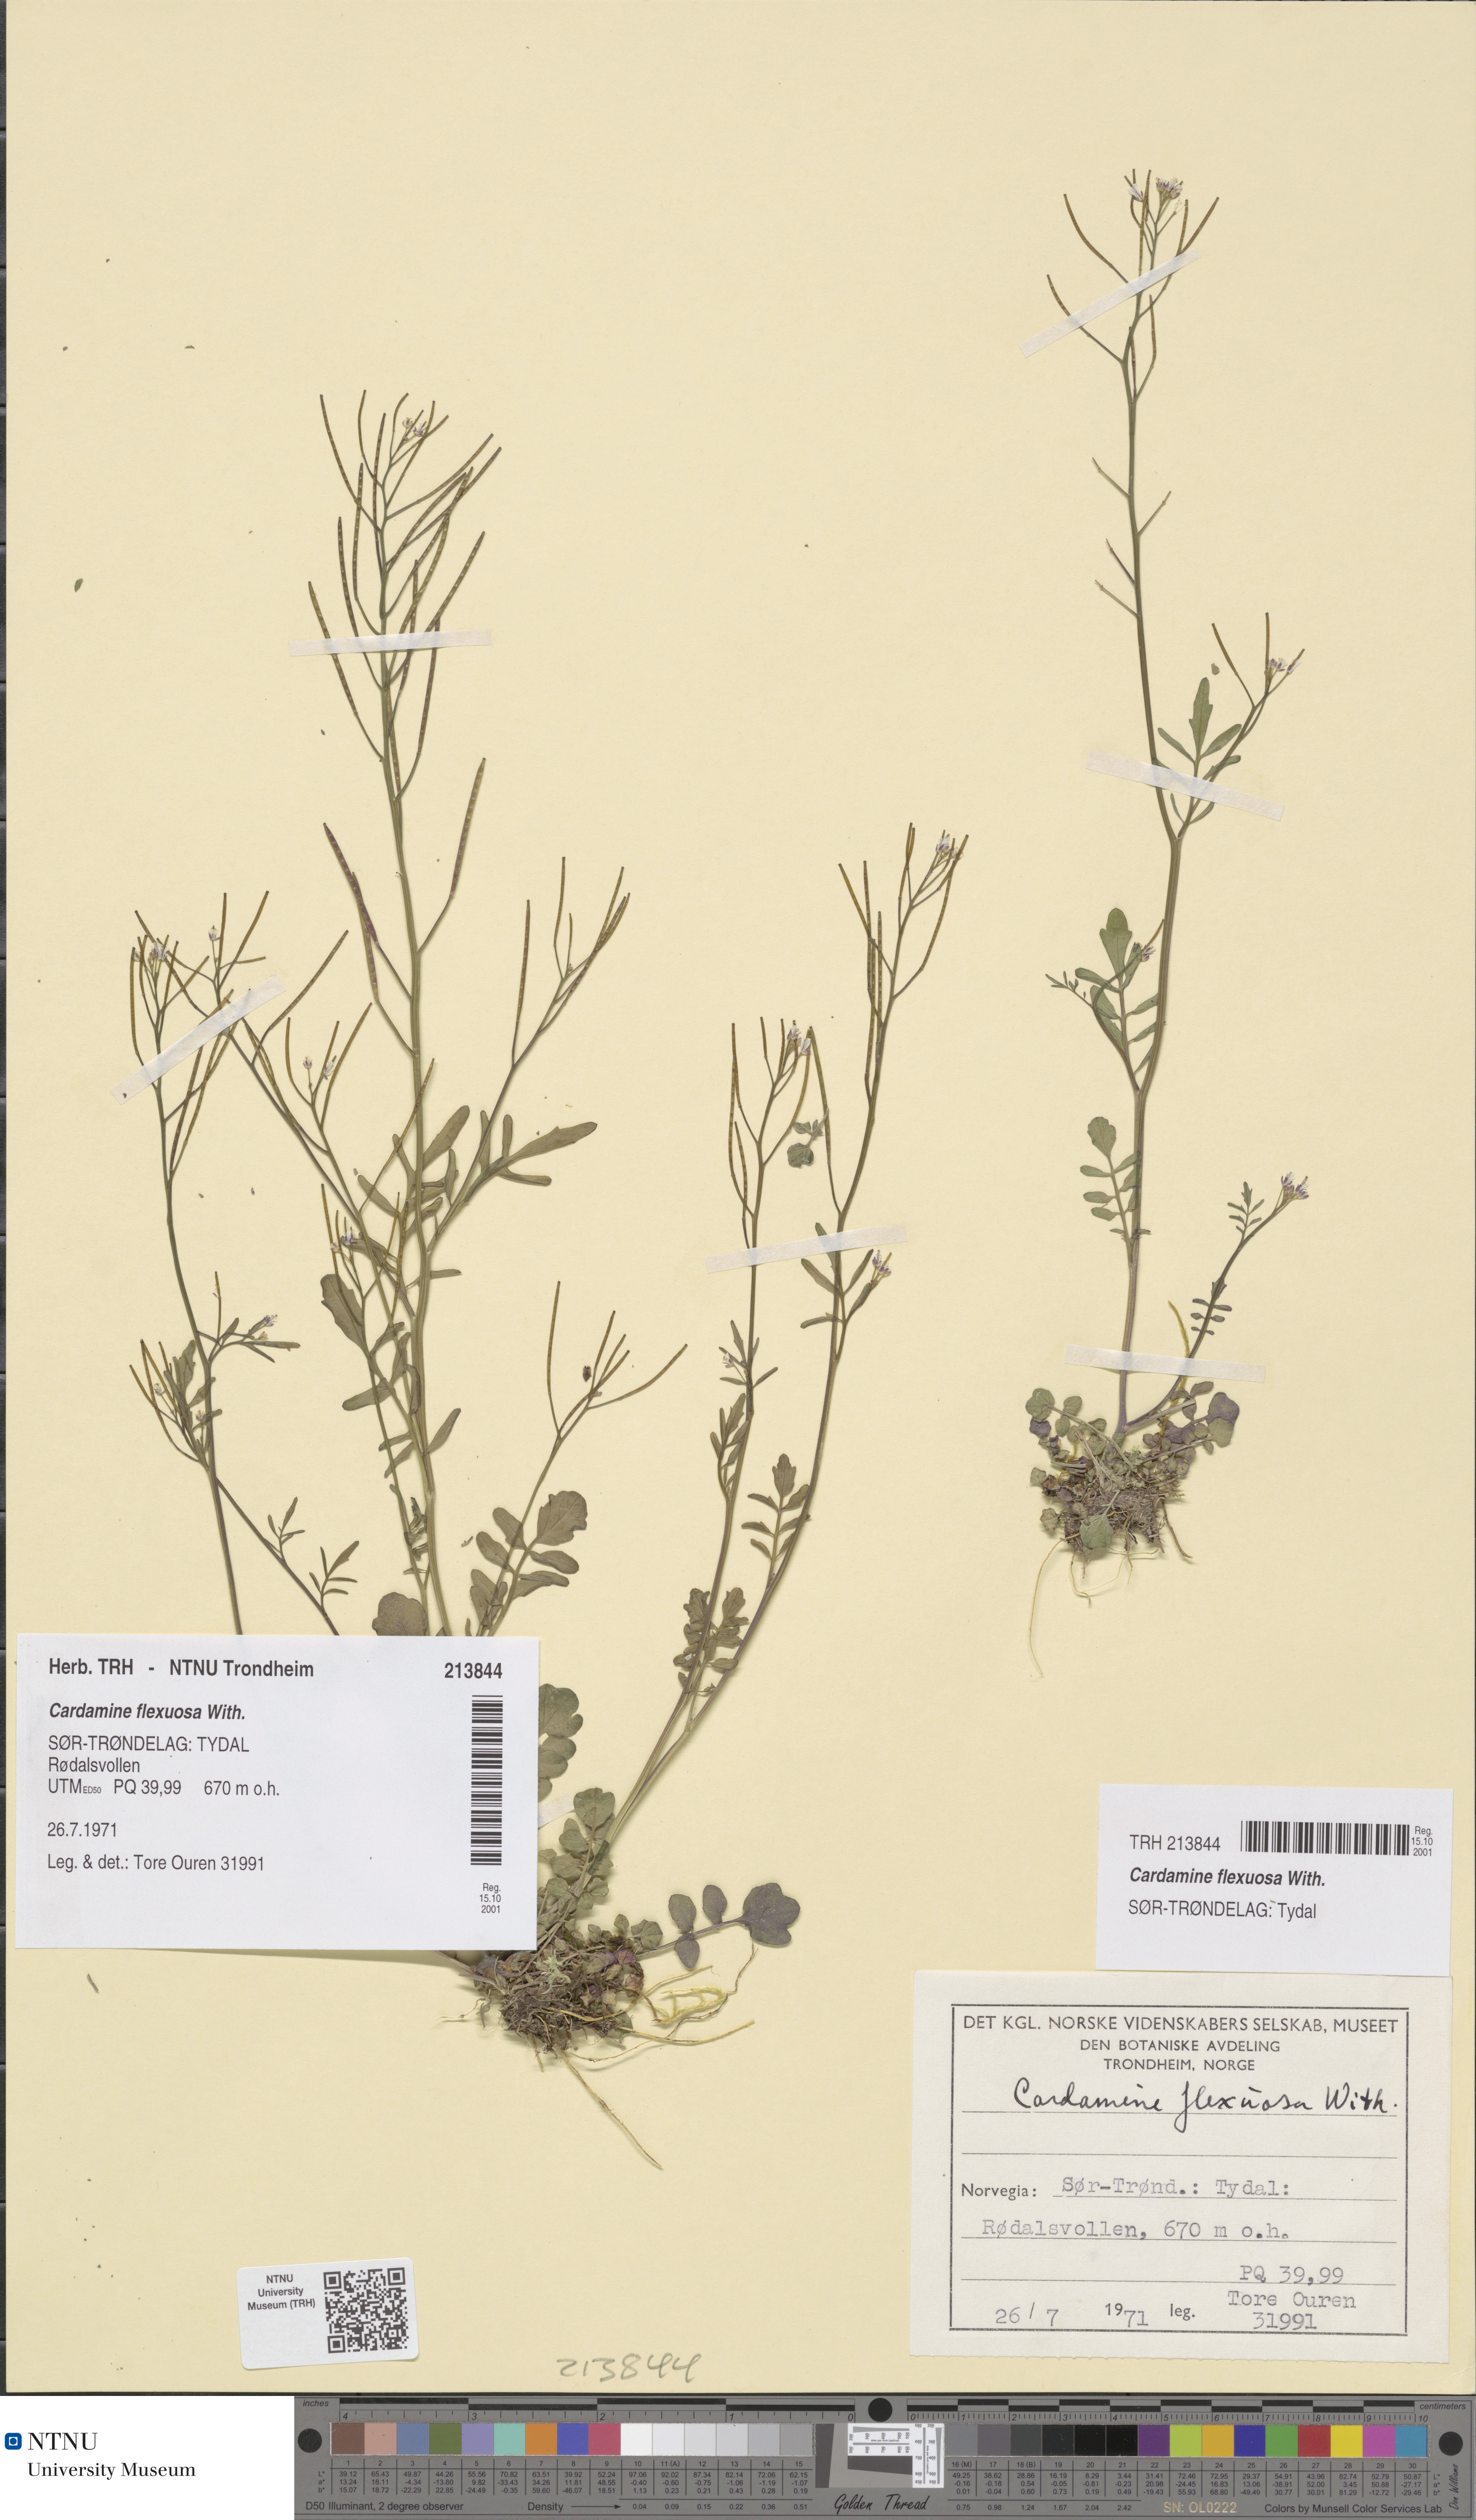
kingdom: Plantae
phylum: Tracheophyta
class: Magnoliopsida
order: Brassicales
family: Brassicaceae
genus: Cardamine
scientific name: Cardamine flexuosa
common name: Woodland bittercress
